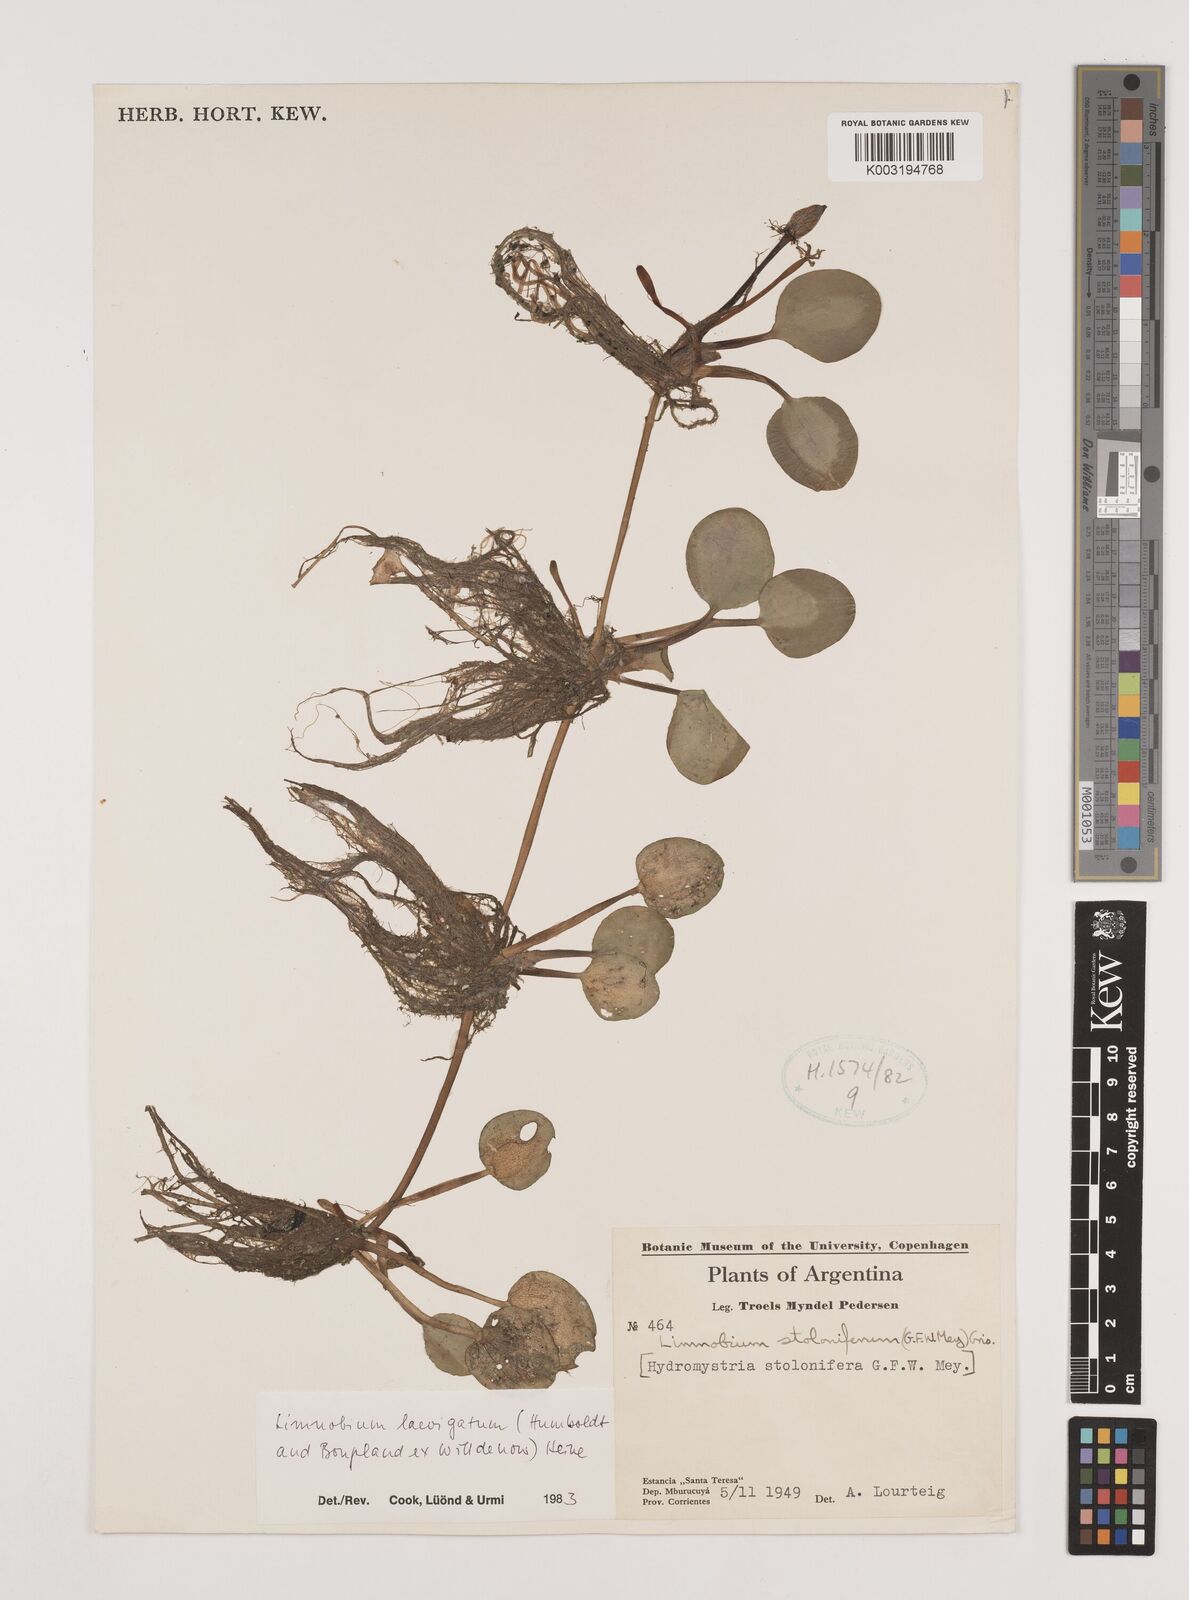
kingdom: Plantae
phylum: Tracheophyta
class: Liliopsida
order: Alismatales
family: Hydrocharitaceae
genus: Hydrocharis
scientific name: Hydrocharis laevigata
